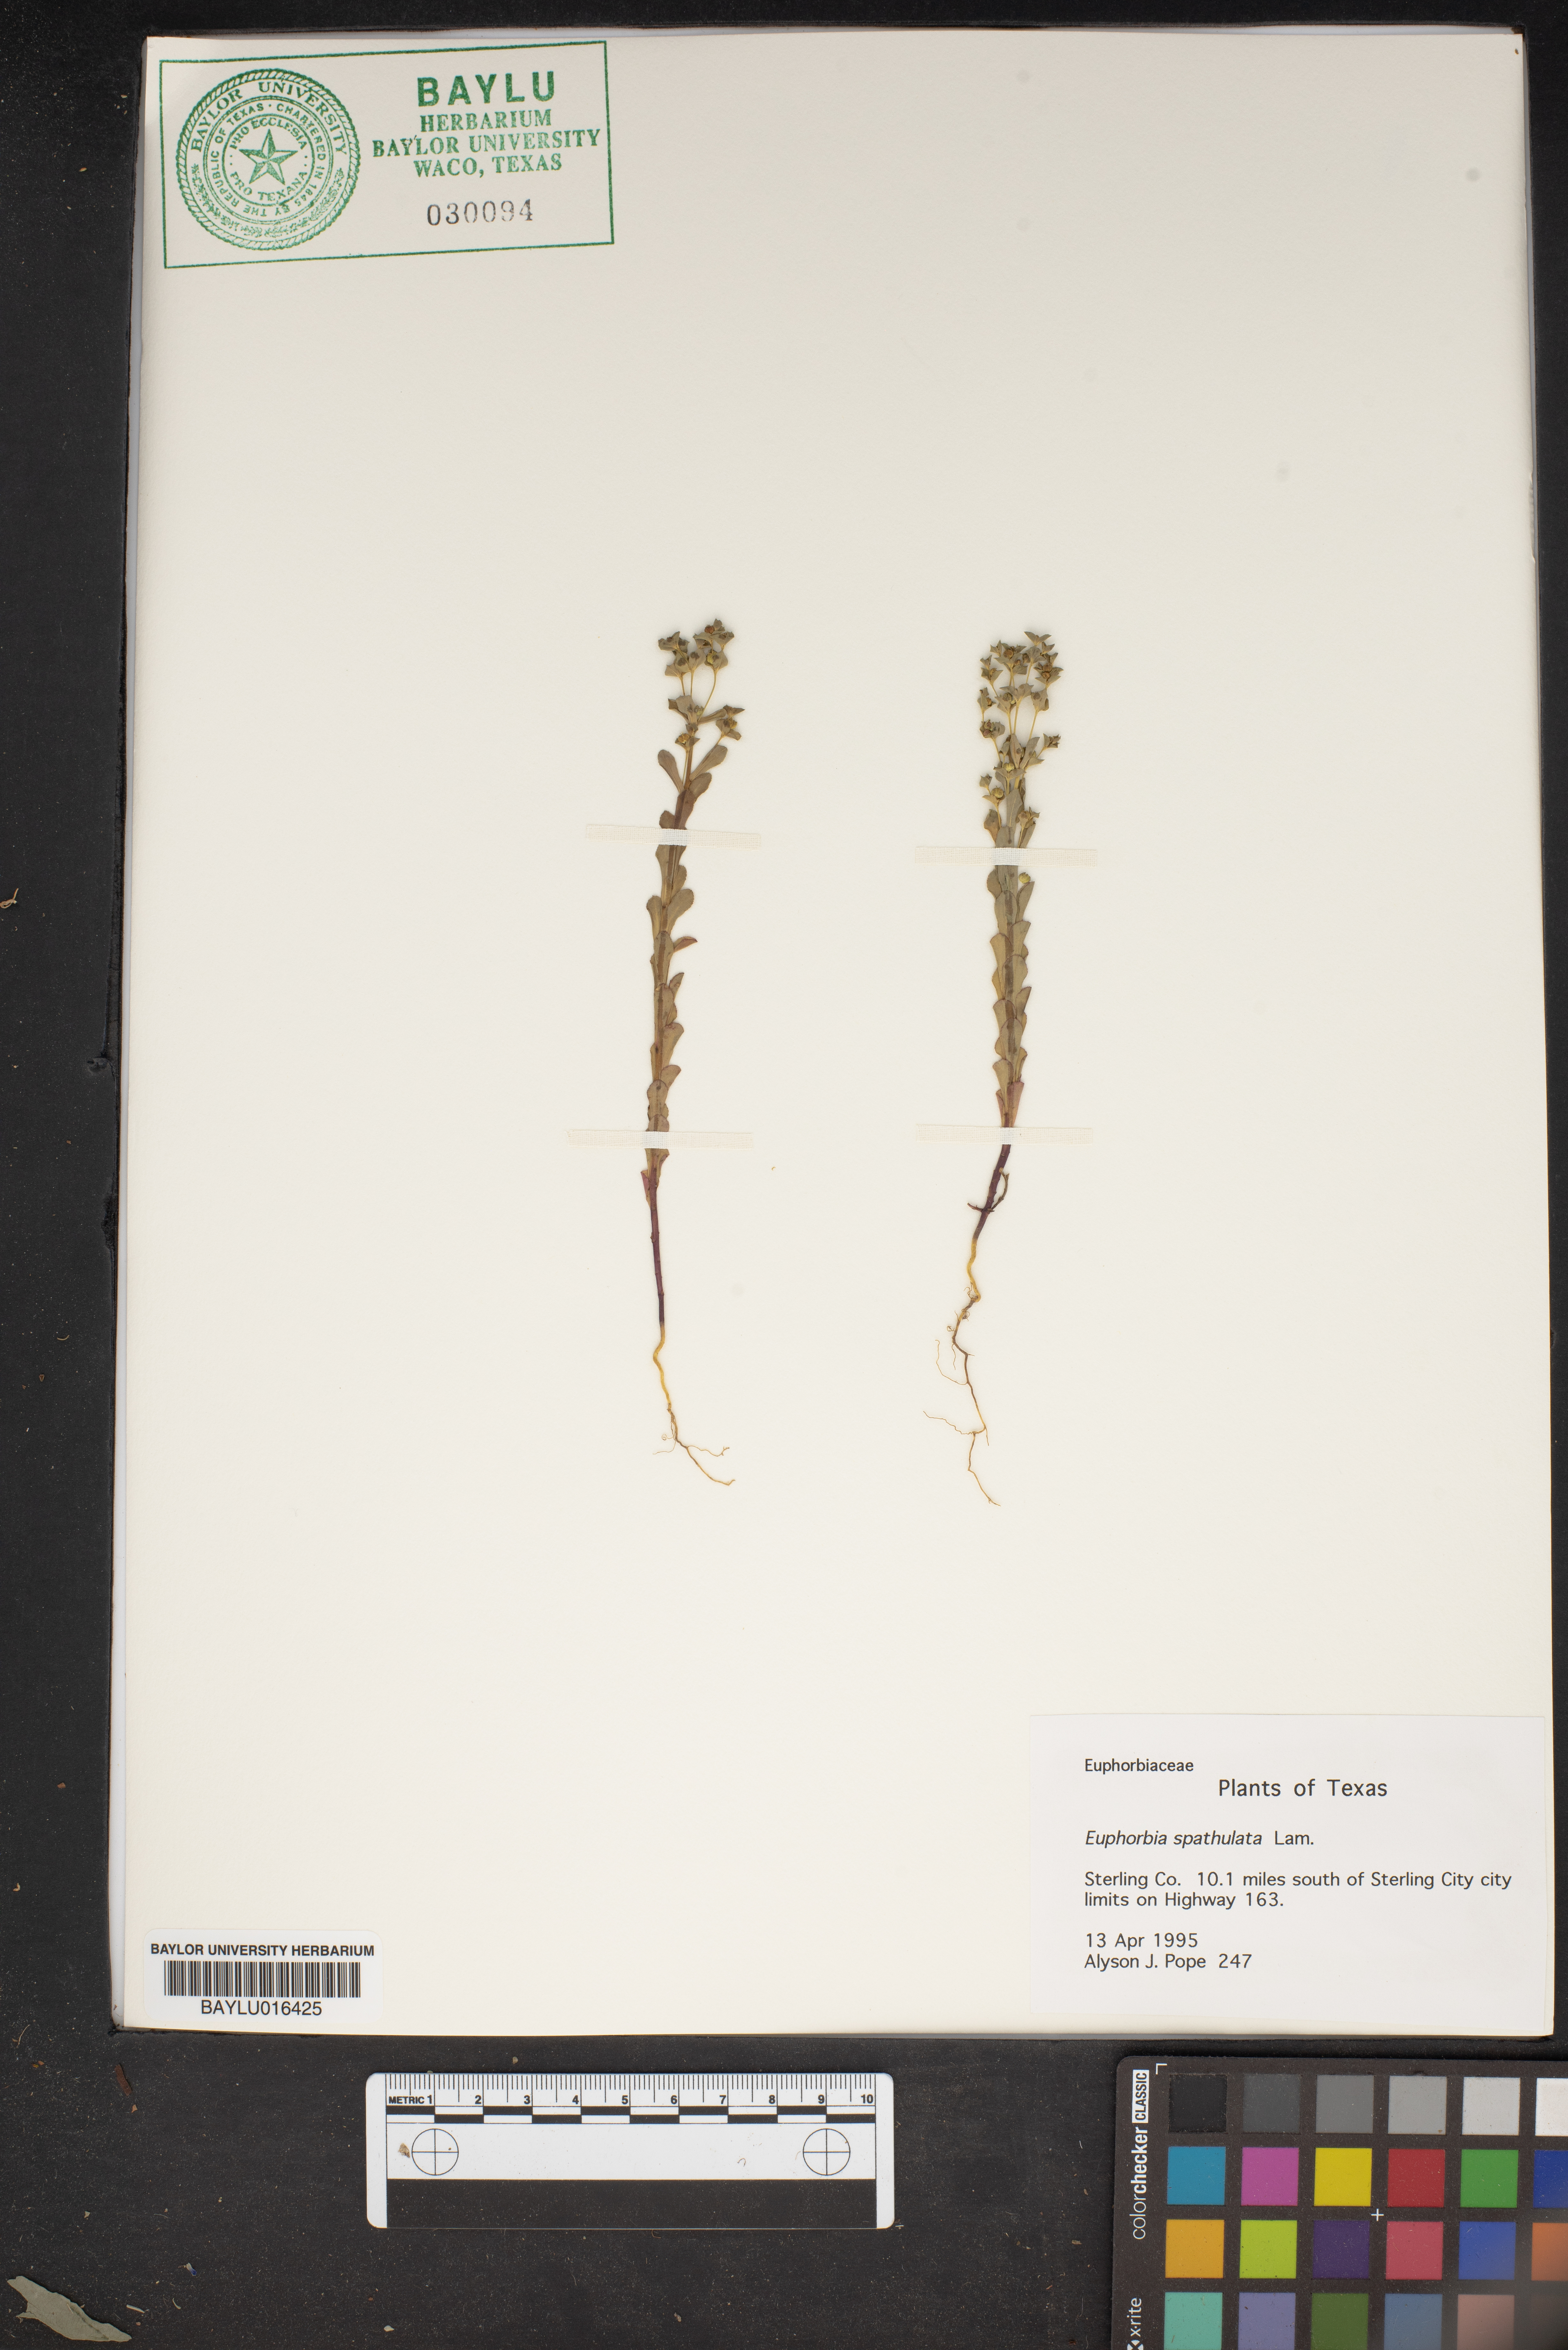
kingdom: Plantae
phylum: Tracheophyta
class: Magnoliopsida
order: Malpighiales
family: Euphorbiaceae
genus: Euphorbia
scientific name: Euphorbia spathulata
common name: Blunt spurge
